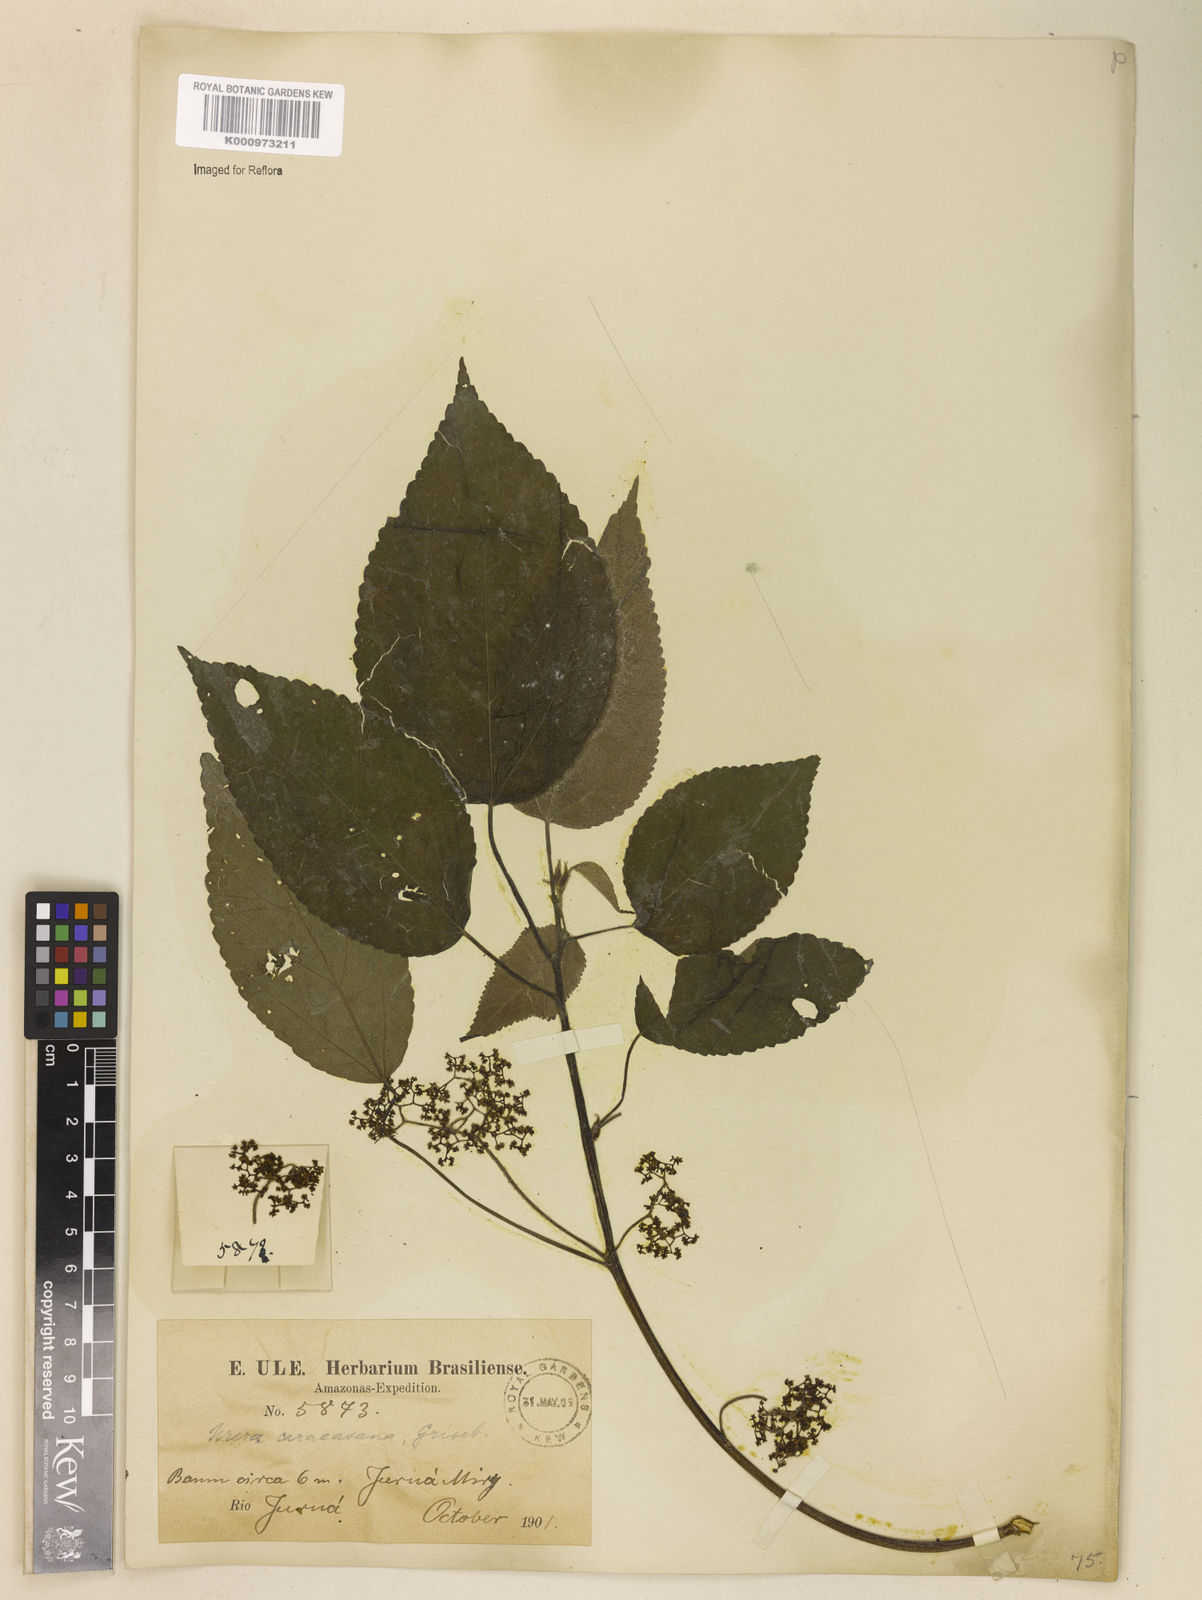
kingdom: Plantae
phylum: Tracheophyta
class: Magnoliopsida
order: Rosales
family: Urticaceae
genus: Urera
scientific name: Urera caracasana
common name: Flameberry
